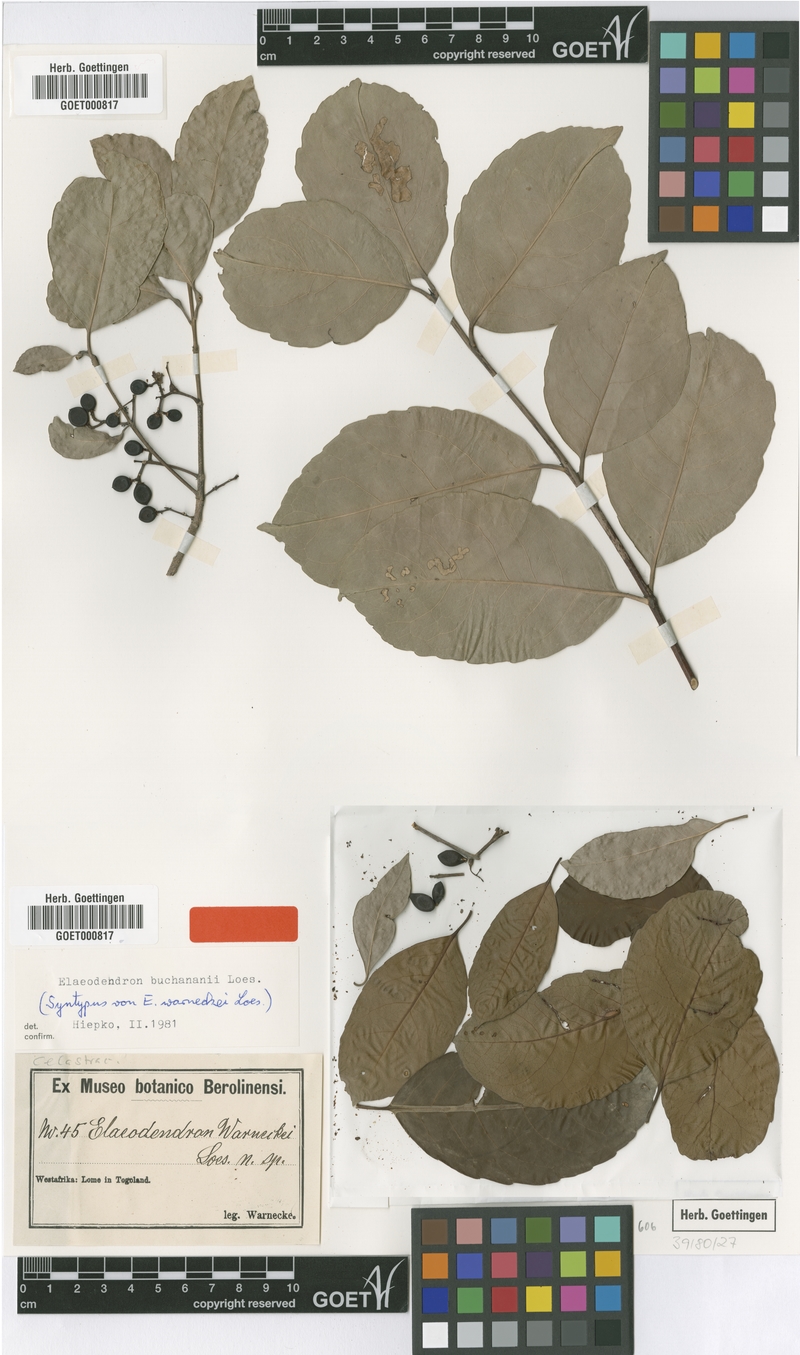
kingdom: Plantae
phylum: Tracheophyta
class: Magnoliopsida
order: Celastrales
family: Celastraceae
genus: Elaeodendron
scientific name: Elaeodendron buchananii
